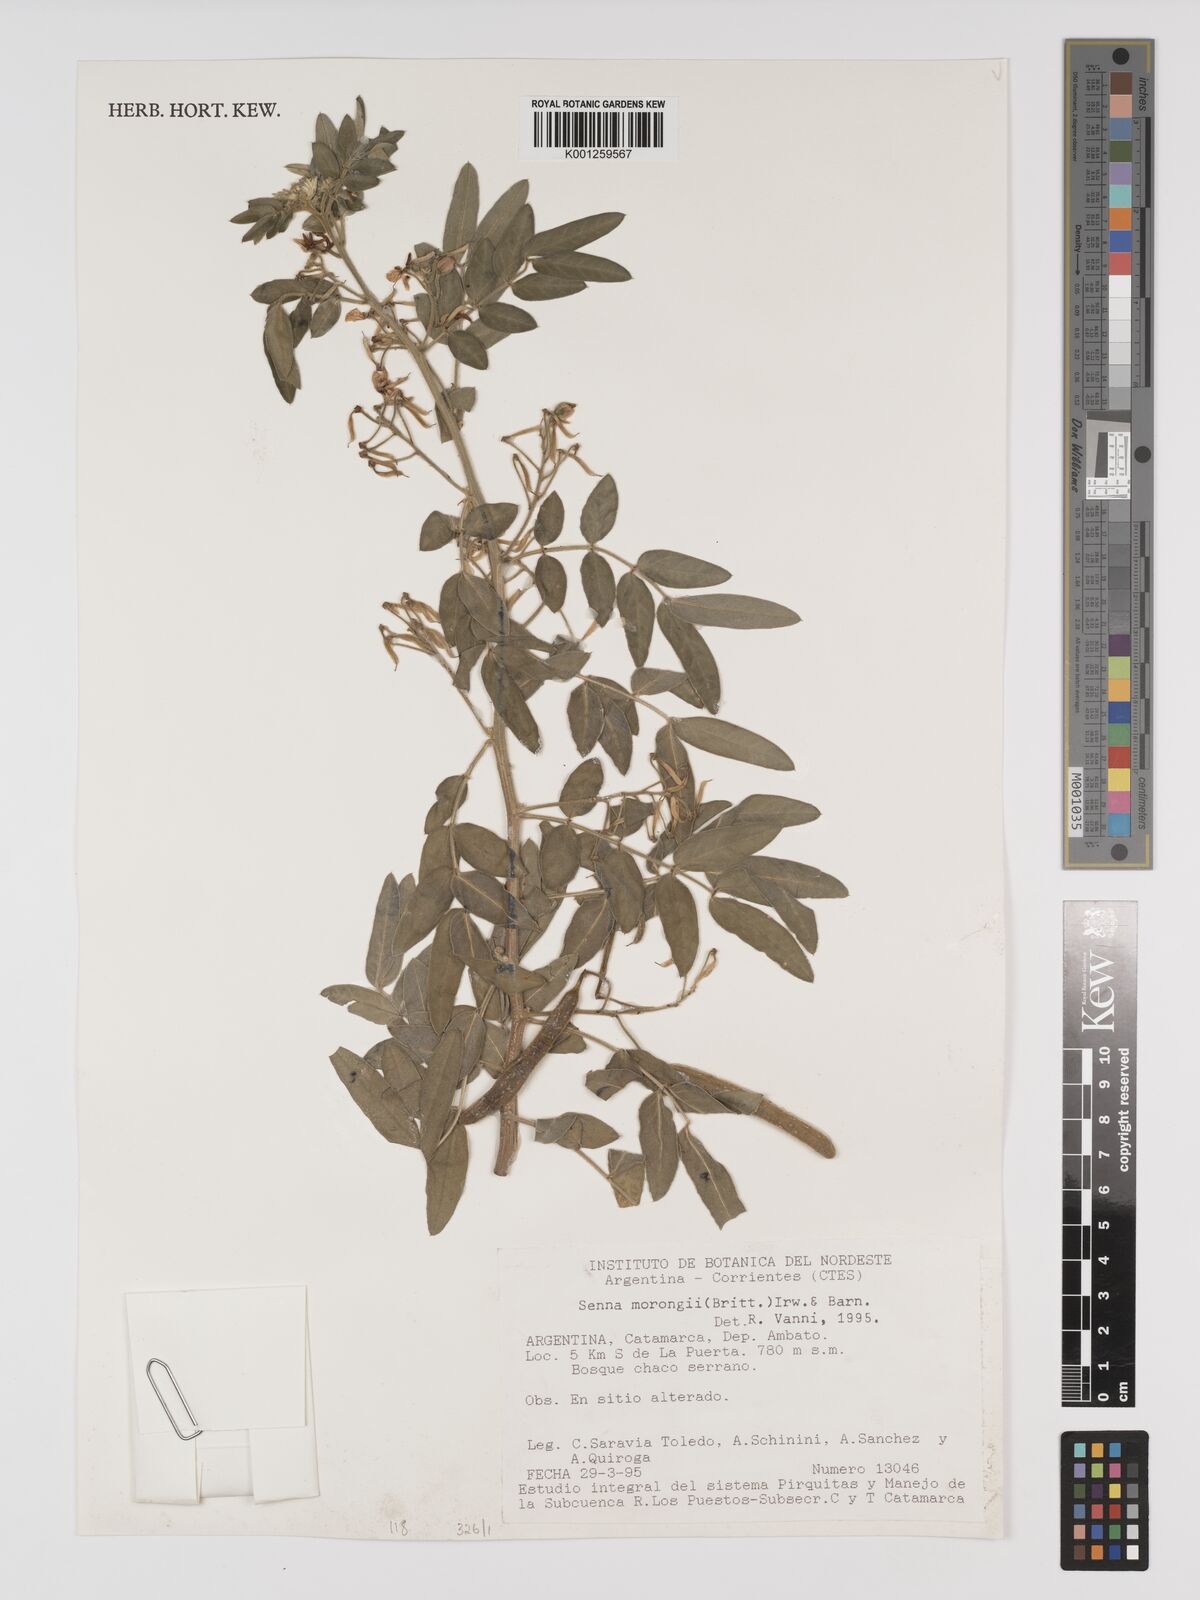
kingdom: Plantae
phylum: Tracheophyta
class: Magnoliopsida
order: Fabales
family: Fabaceae
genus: Senna
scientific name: Senna morongii
